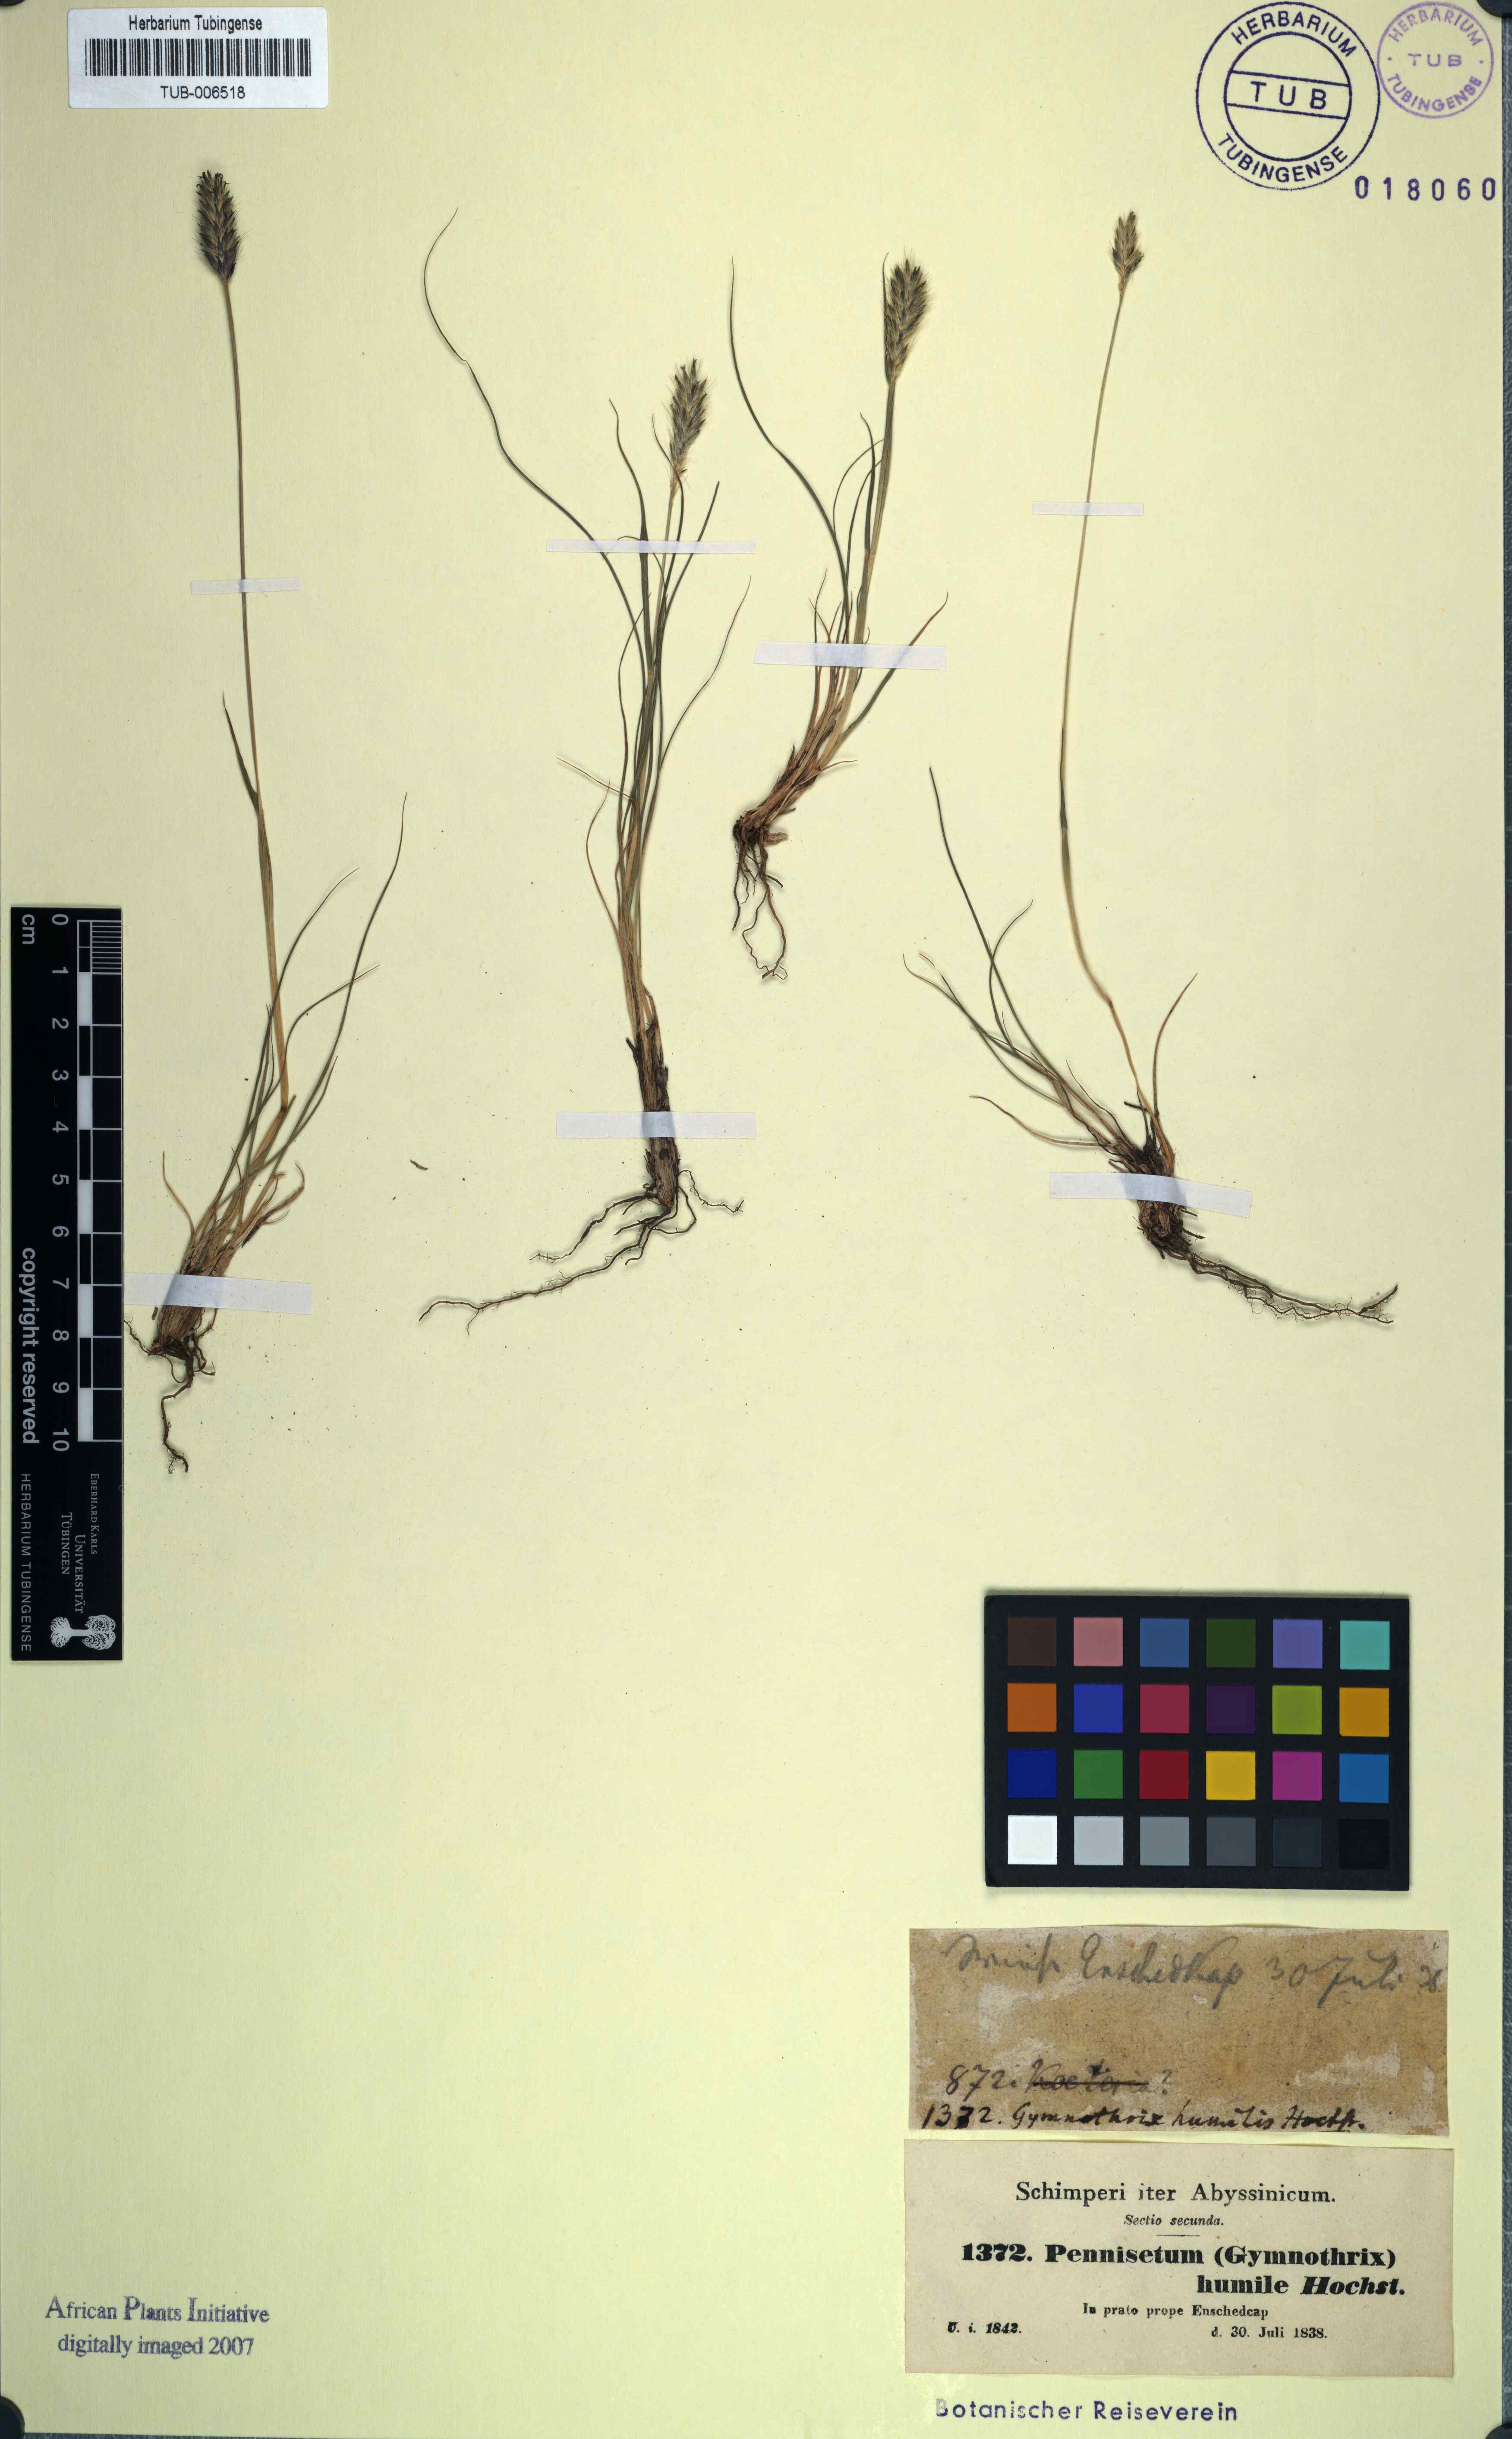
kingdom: Plantae
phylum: Tracheophyta
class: Liliopsida
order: Poales
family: Poaceae
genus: Cenchrus
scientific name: Cenchrus nanus
